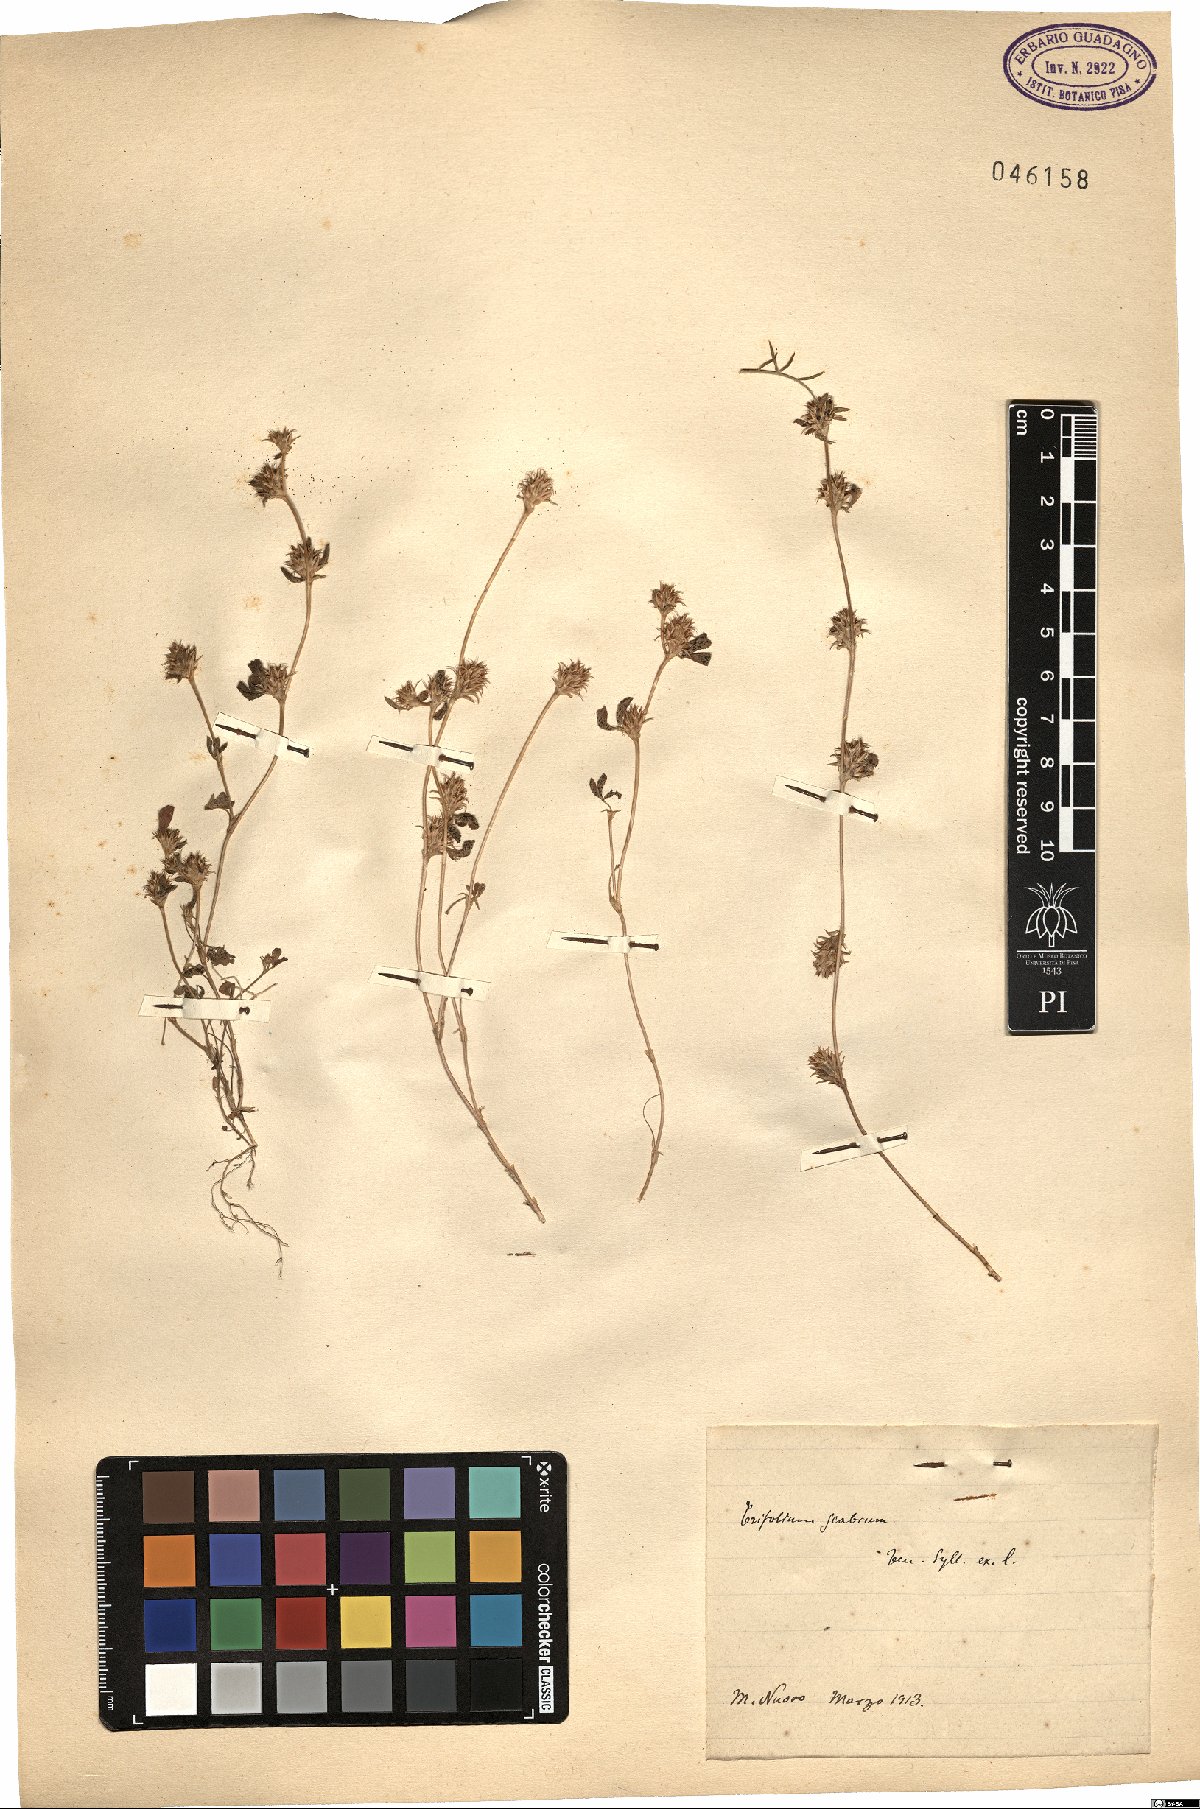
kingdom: Plantae
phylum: Tracheophyta
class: Magnoliopsida
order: Fabales
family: Fabaceae
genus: Trifolium
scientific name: Trifolium scabrum
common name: Rough clover
